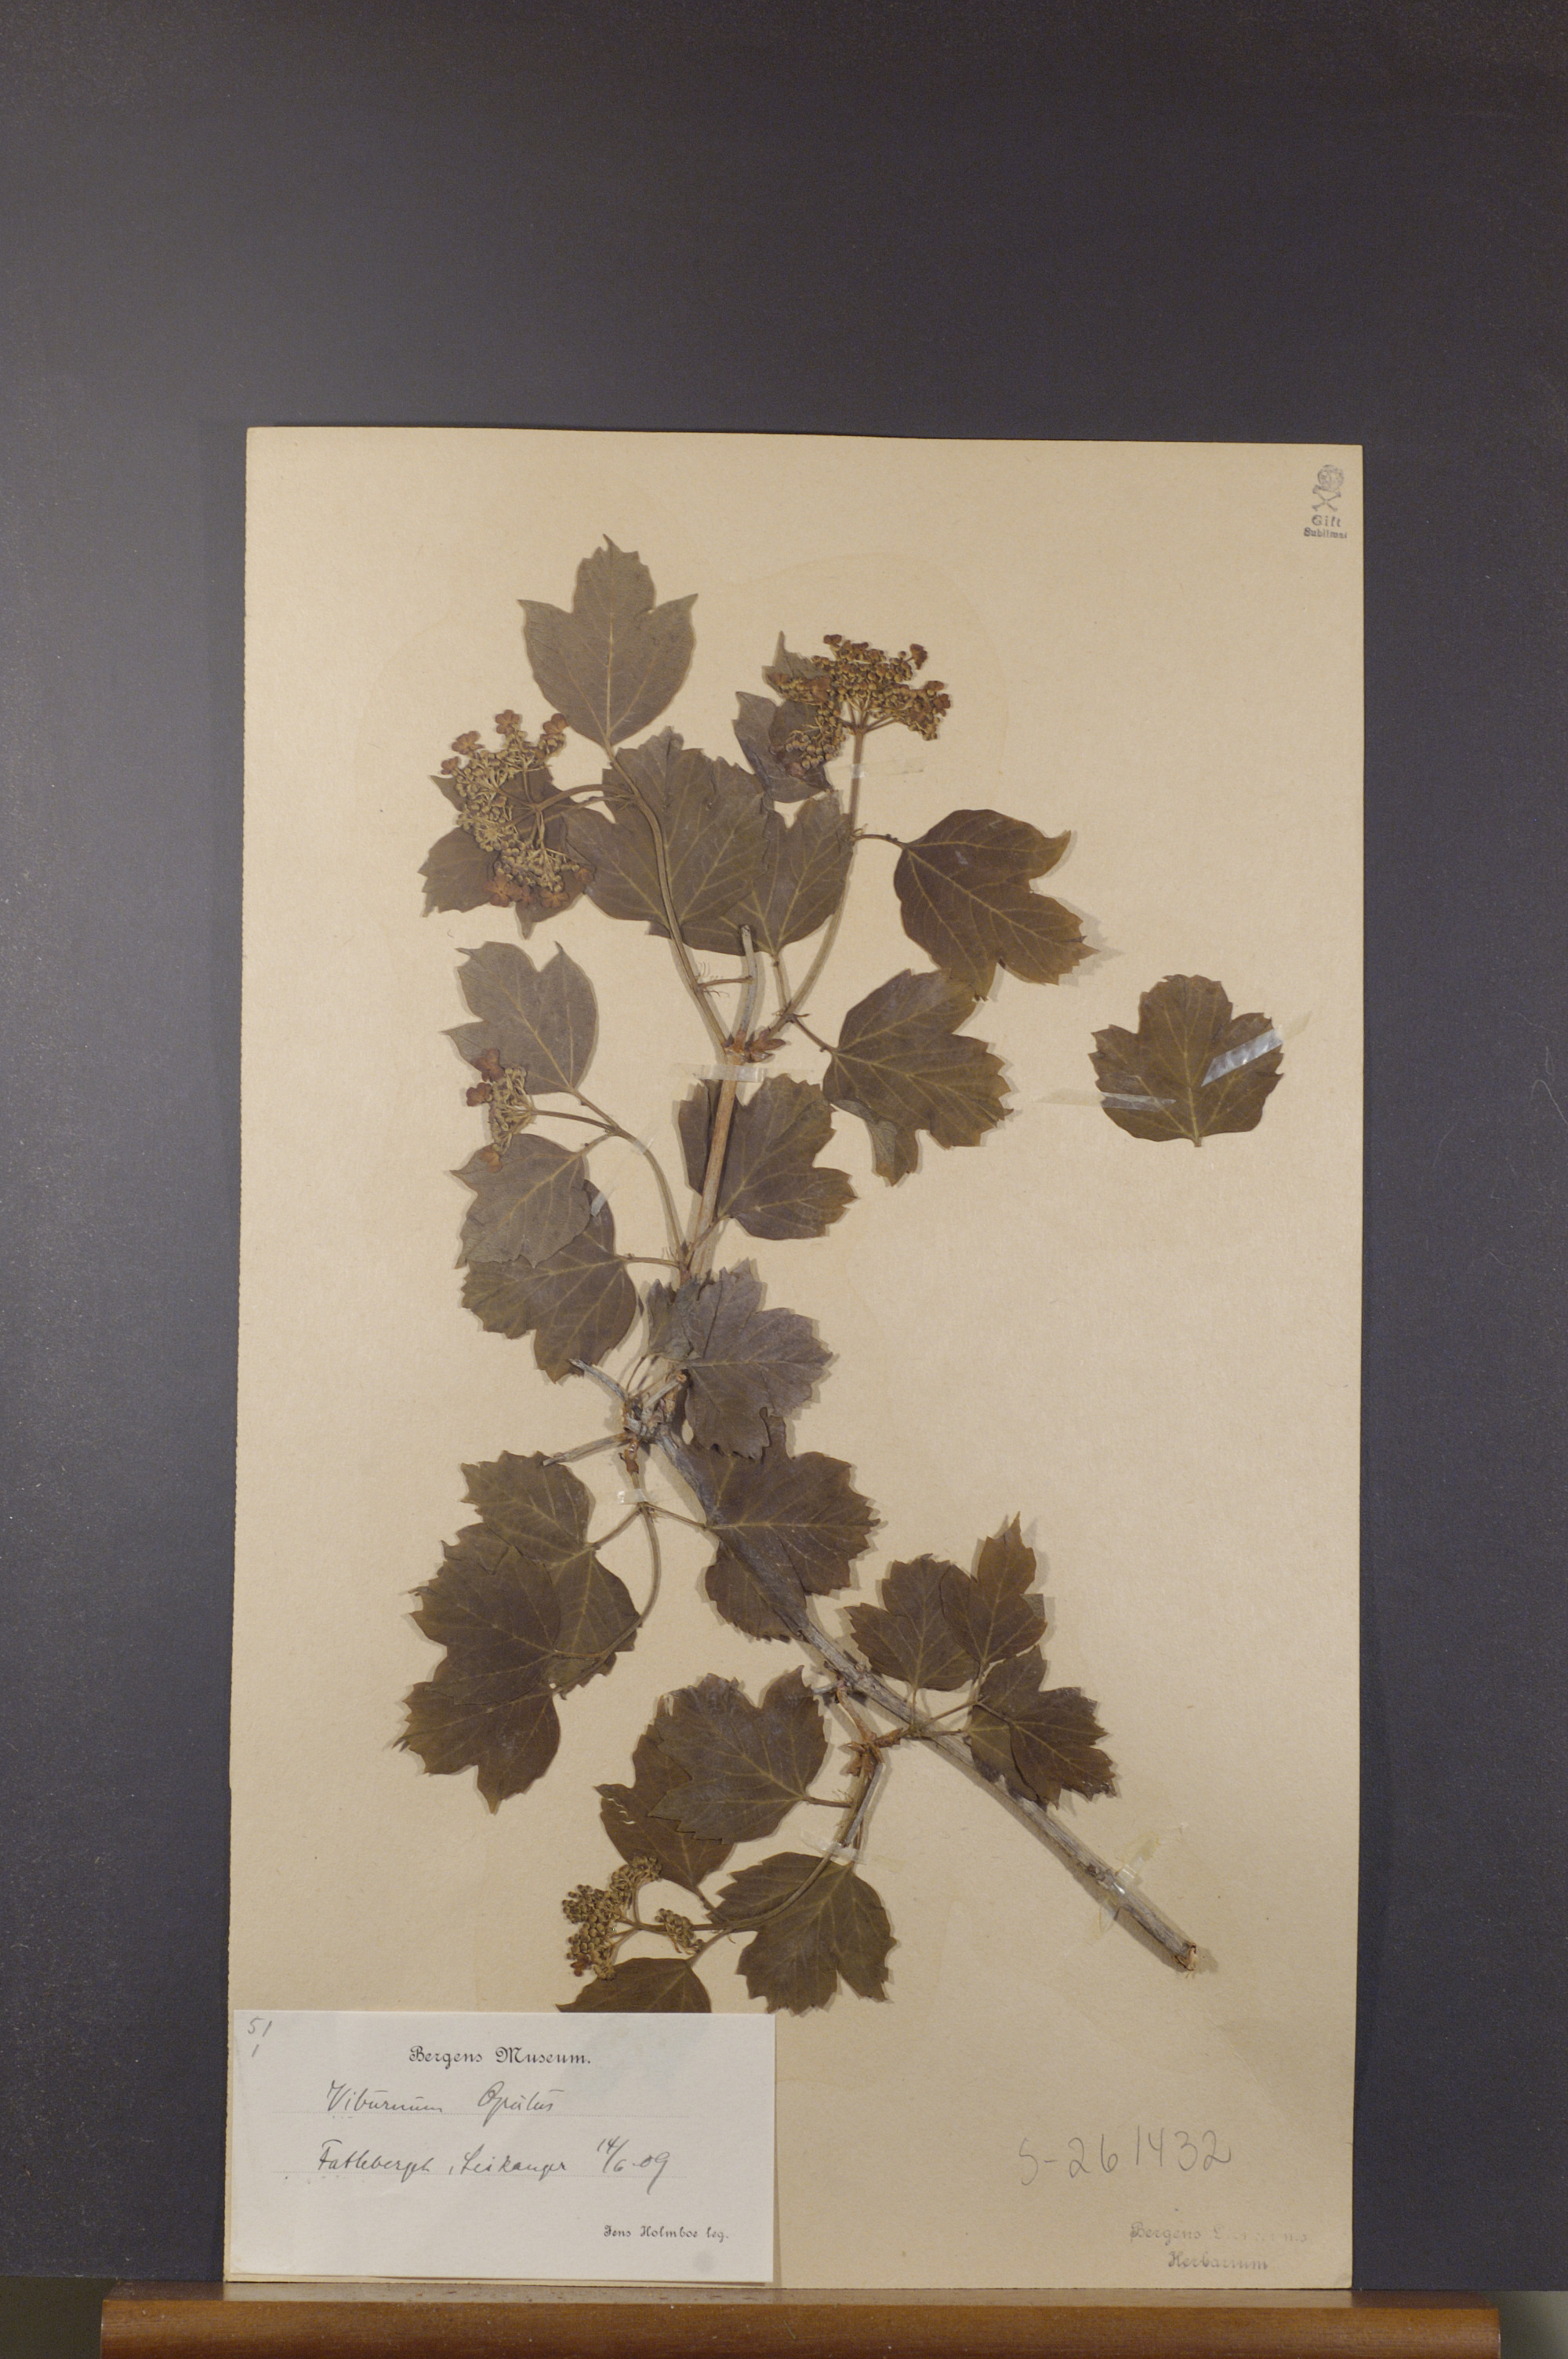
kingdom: Plantae
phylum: Tracheophyta
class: Magnoliopsida
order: Dipsacales
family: Viburnaceae
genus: Viburnum
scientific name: Viburnum opulus
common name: Guelder-rose
